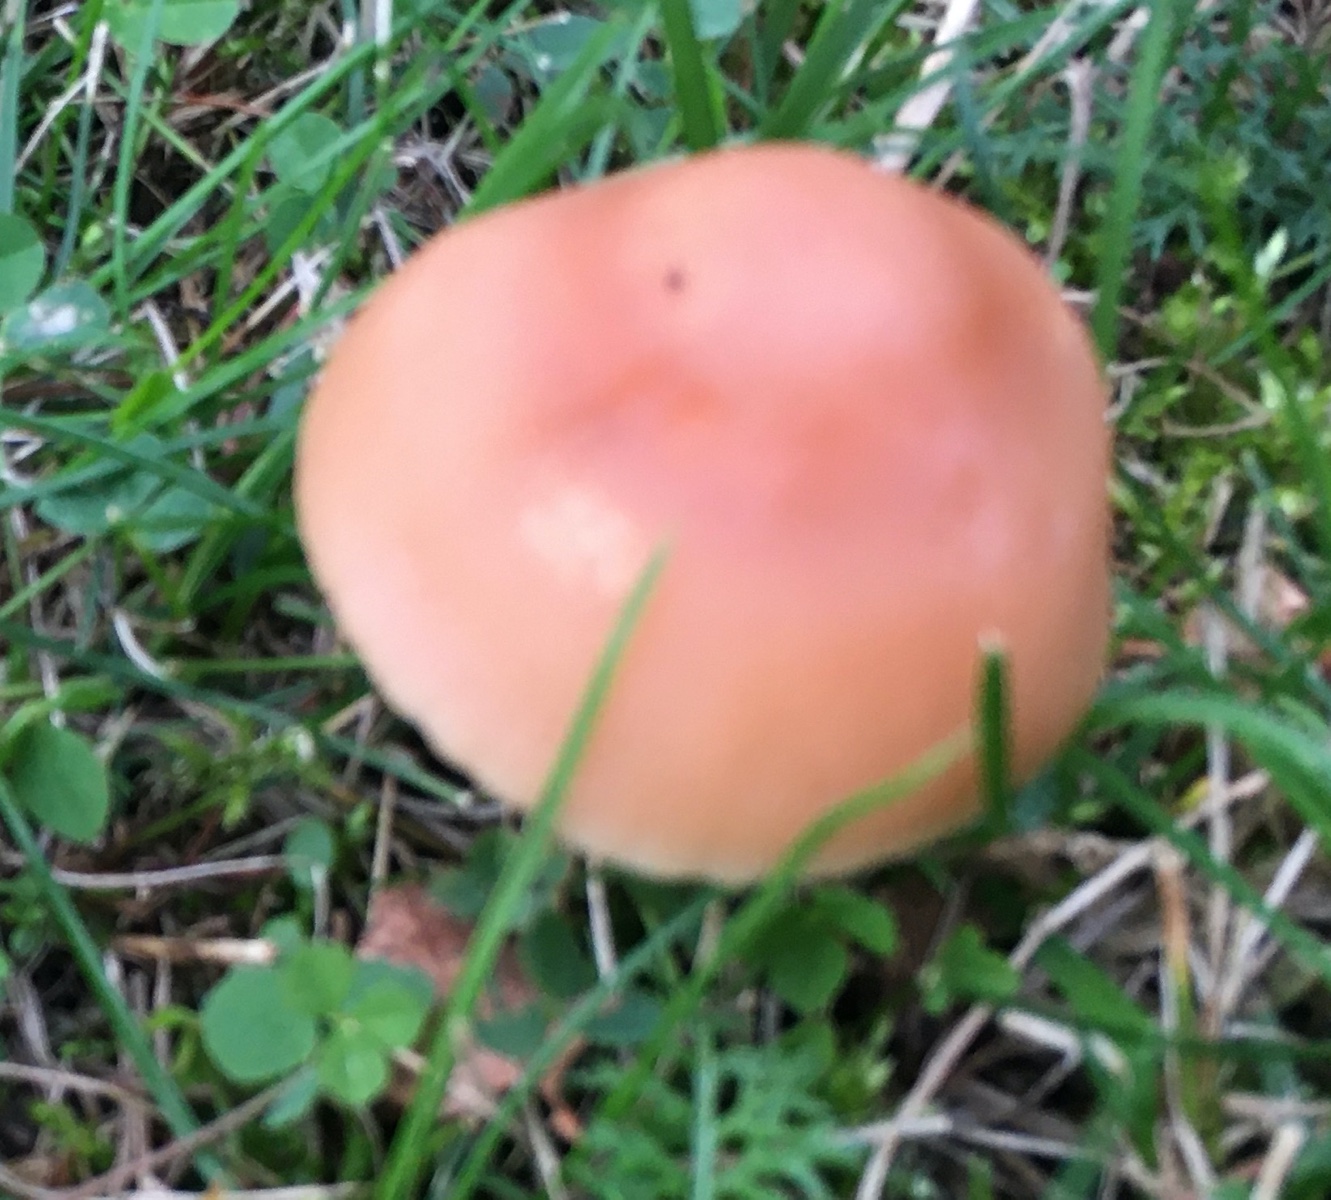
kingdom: Fungi
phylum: Basidiomycota
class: Agaricomycetes
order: Agaricales
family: Marasmiaceae
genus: Marasmius
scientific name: Marasmius oreades
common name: elledans-bruskhat
